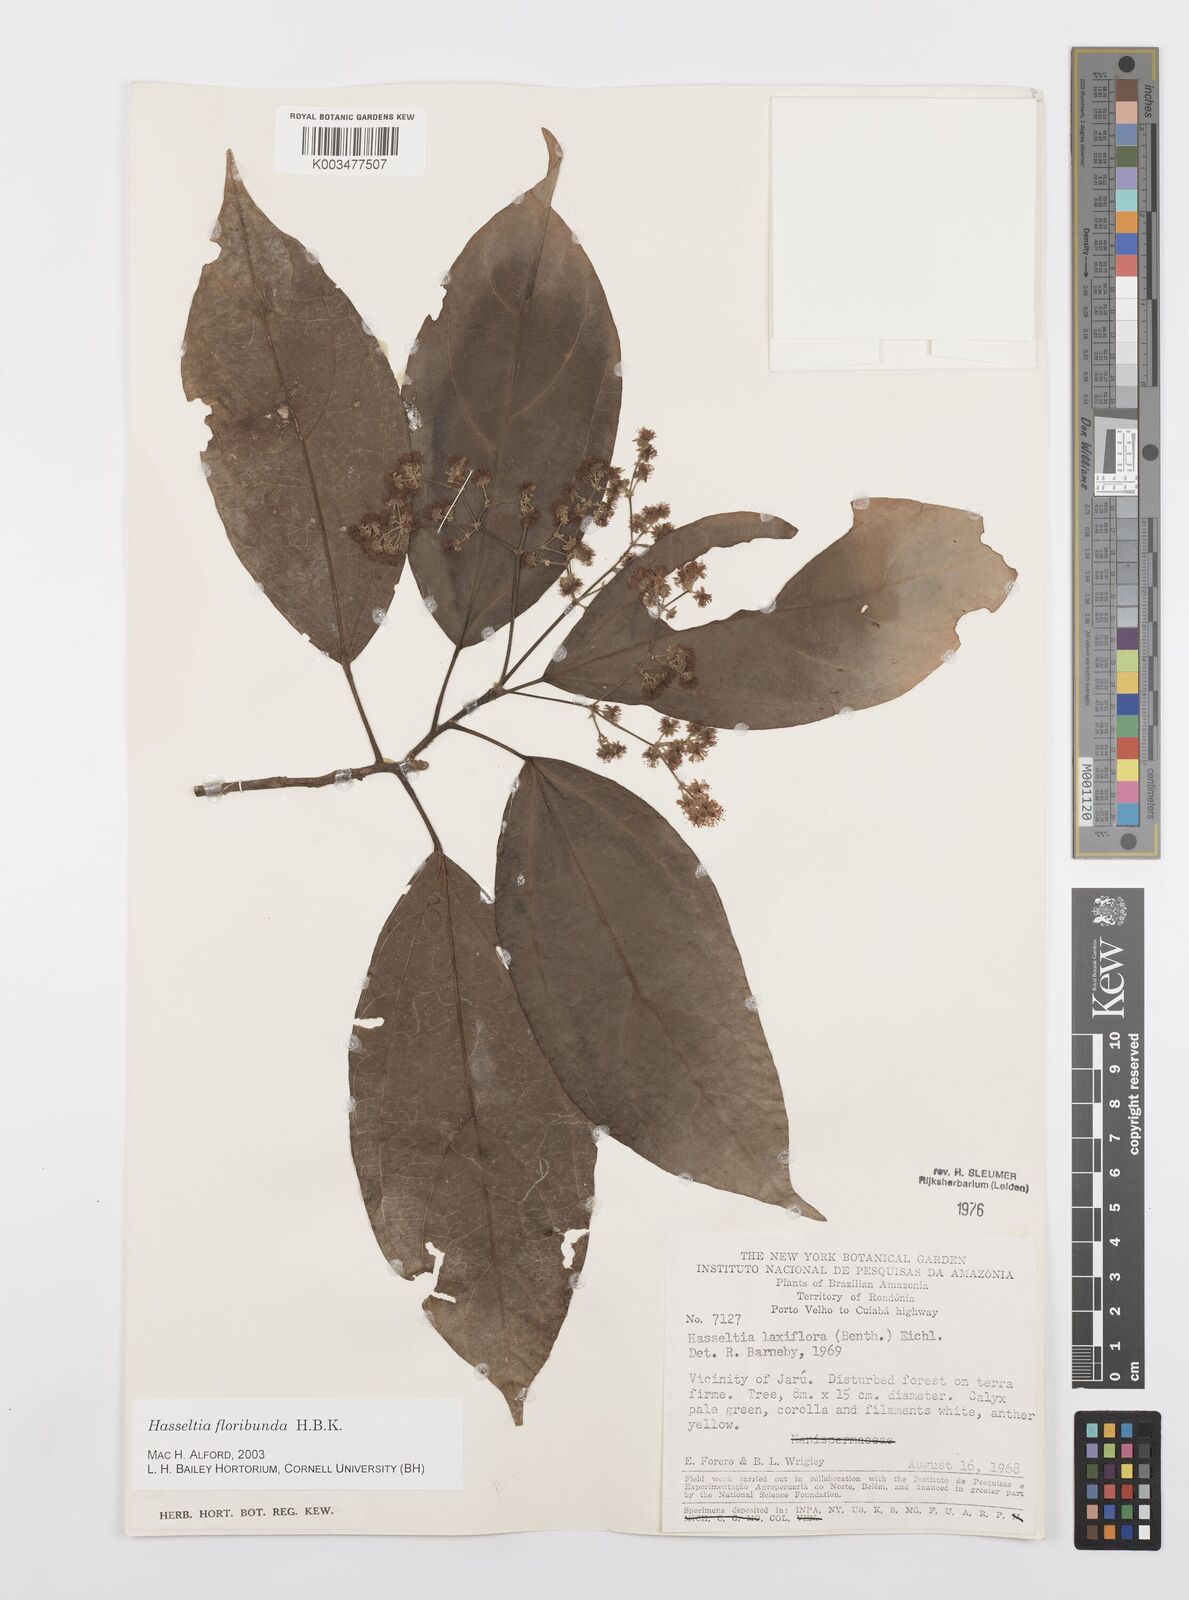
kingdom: Plantae
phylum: Tracheophyta
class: Magnoliopsida
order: Malpighiales
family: Salicaceae
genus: Hasseltia
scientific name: Hasseltia floribunda
